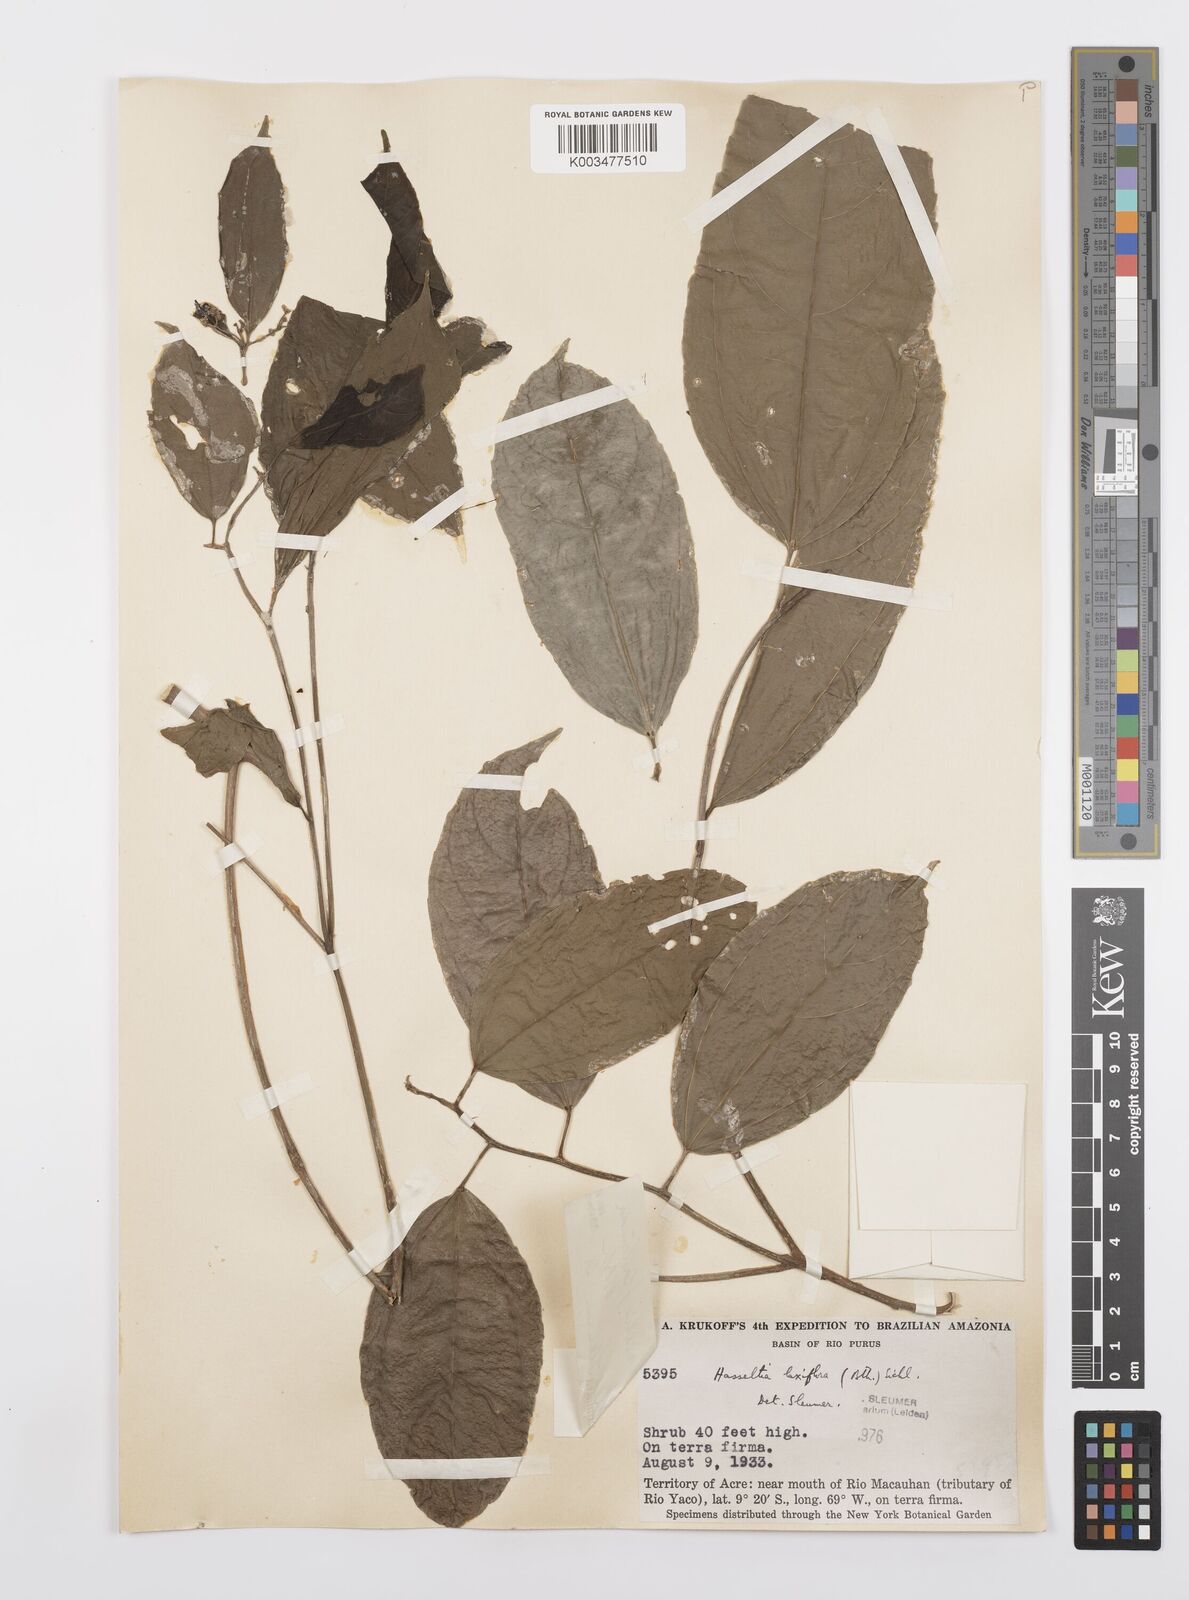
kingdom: Plantae
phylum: Tracheophyta
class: Magnoliopsida
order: Malpighiales
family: Salicaceae
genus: Hasseltia
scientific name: Hasseltia floribunda
